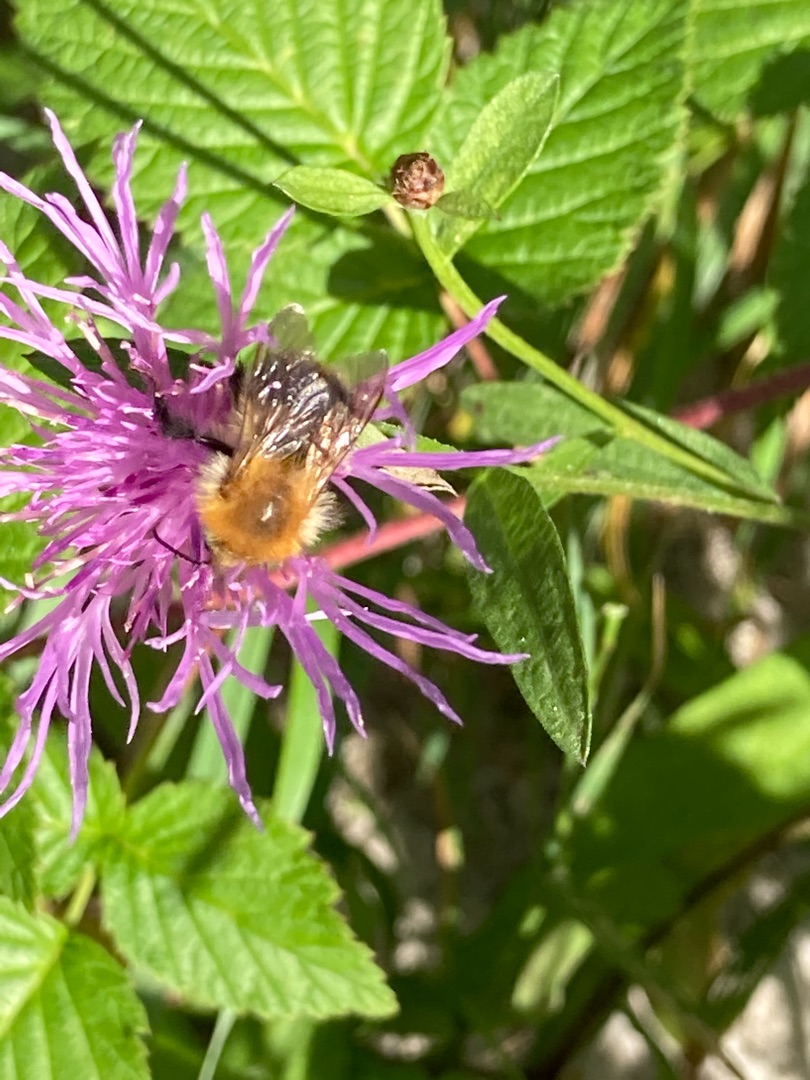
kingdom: Animalia
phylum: Arthropoda
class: Insecta
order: Hymenoptera
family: Apidae
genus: Bombus
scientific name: Bombus pascuorum
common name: Agerhumle
